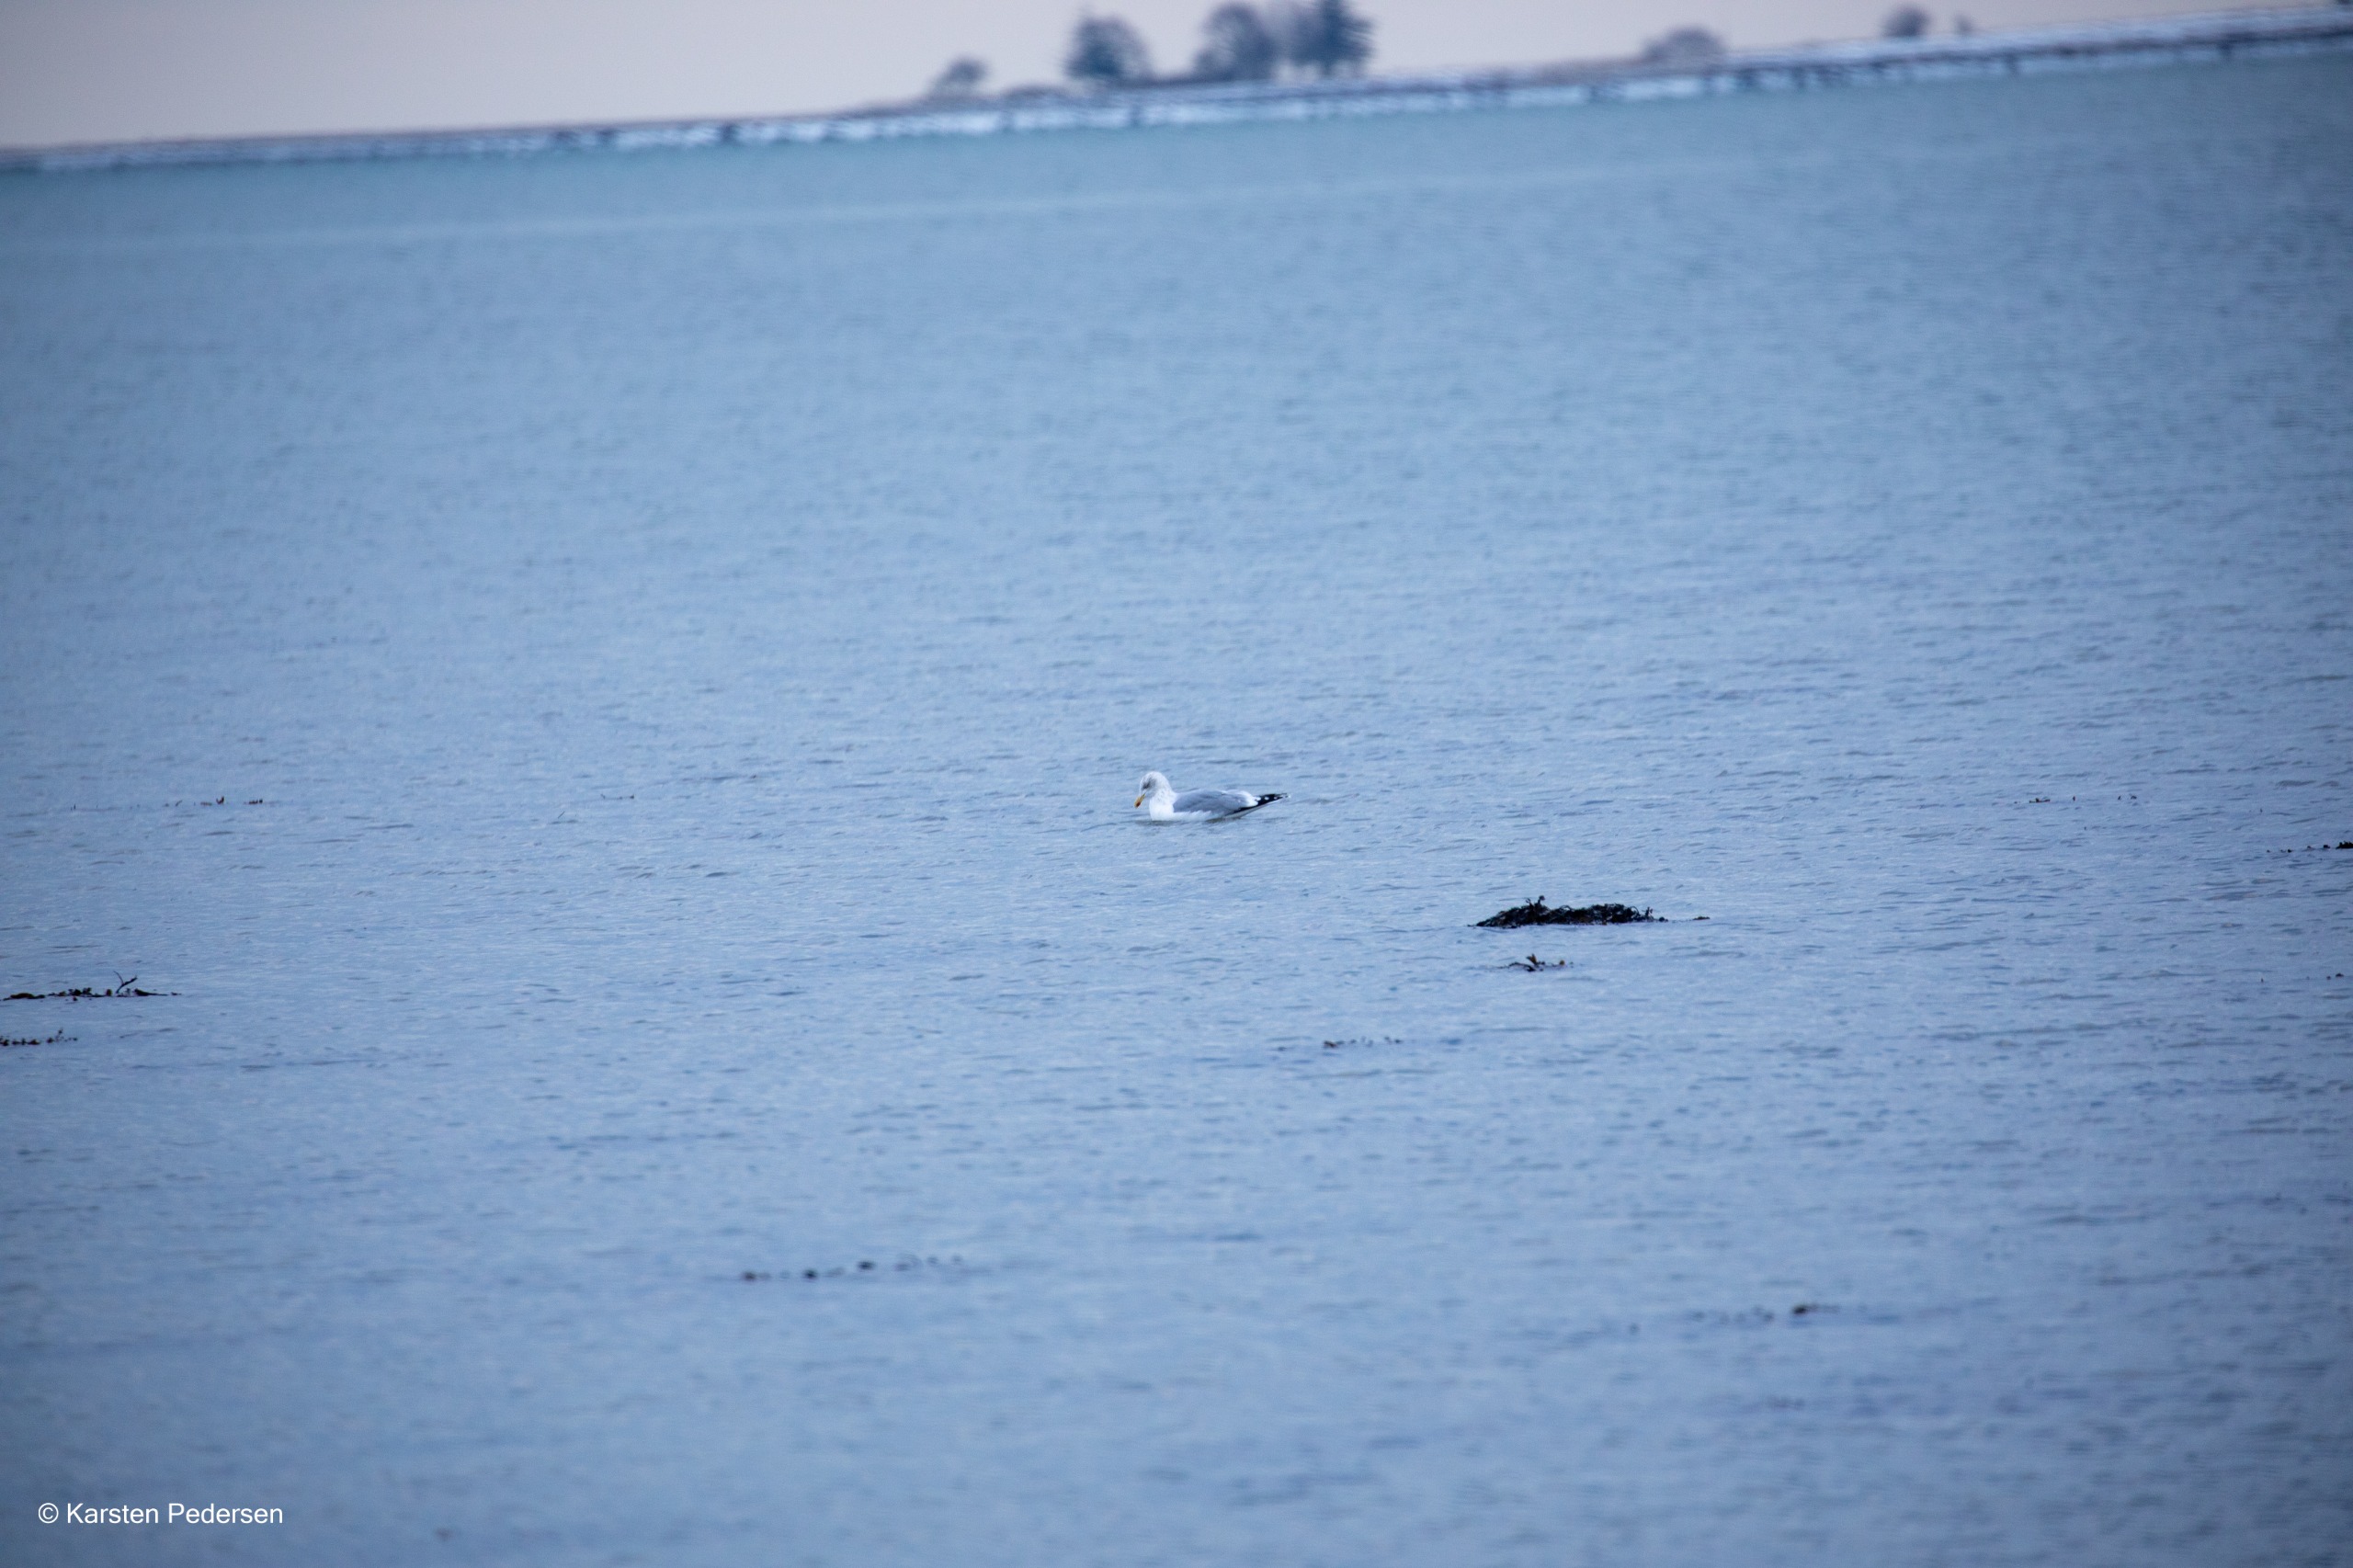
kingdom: Animalia
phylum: Chordata
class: Aves
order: Charadriiformes
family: Laridae
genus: Larus
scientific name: Larus argentatus
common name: Sølvmåge
